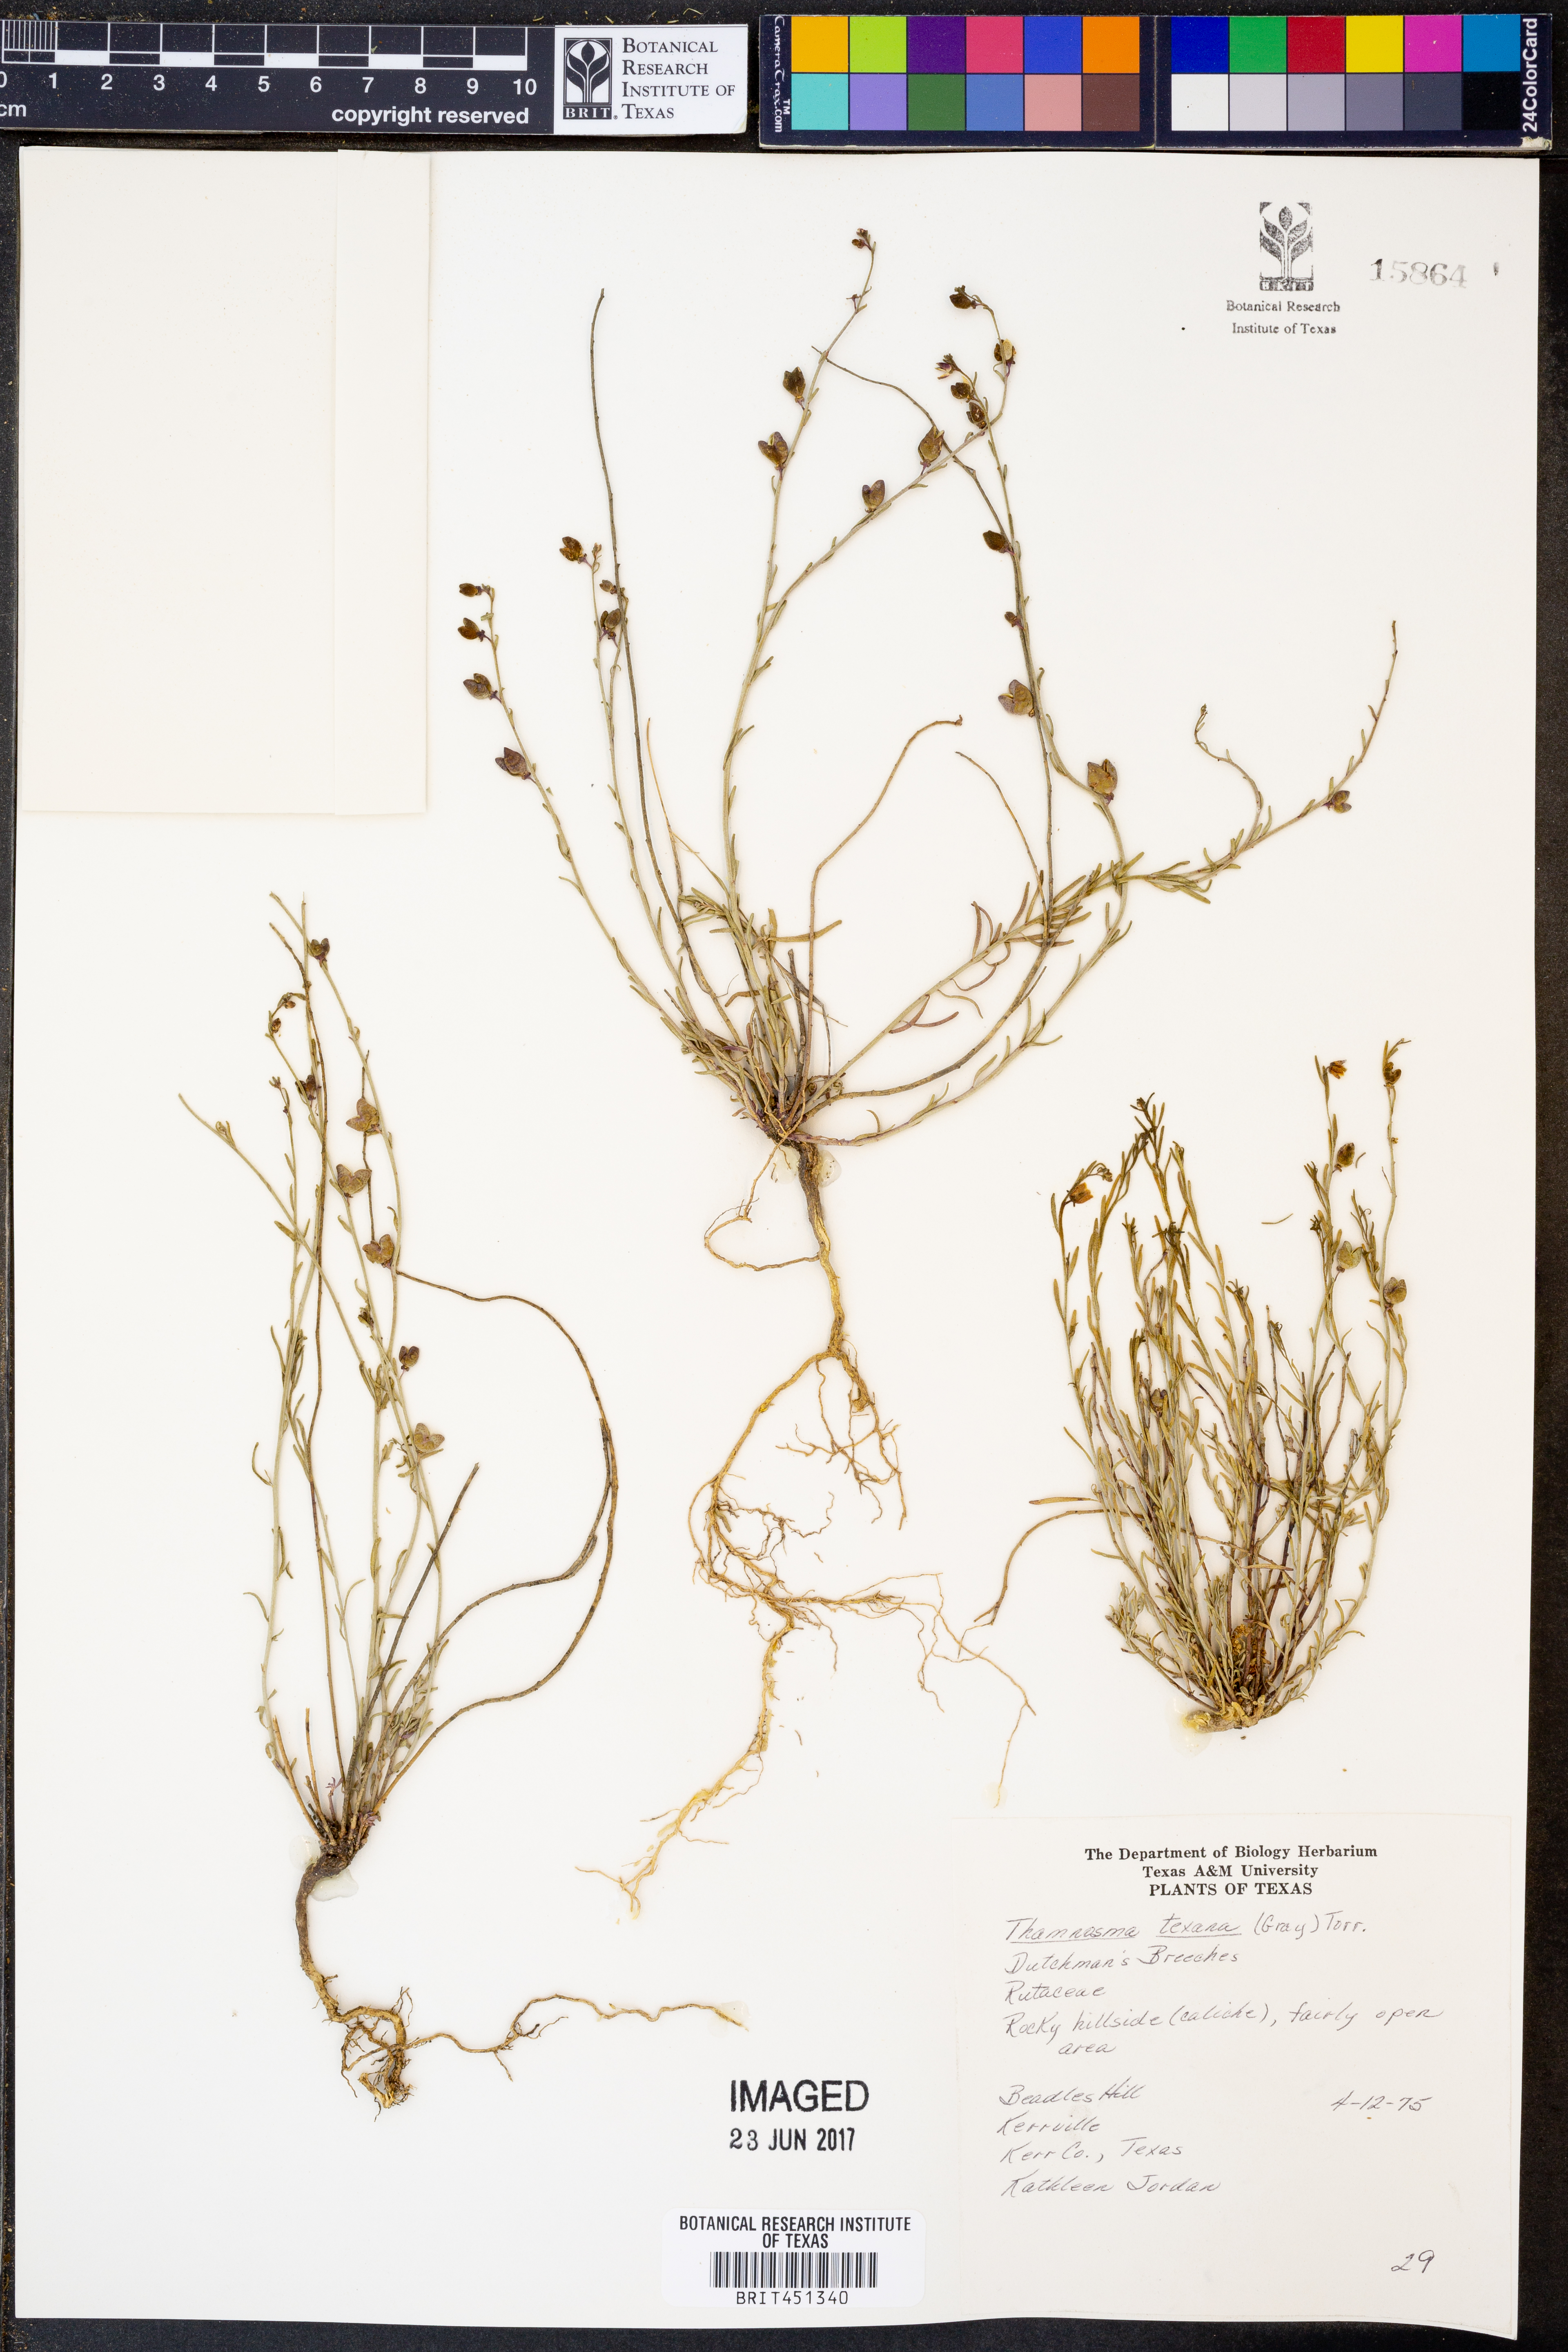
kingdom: Plantae
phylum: Tracheophyta
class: Magnoliopsida
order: Sapindales
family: Rutaceae
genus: Thamnosma
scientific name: Thamnosma texana
